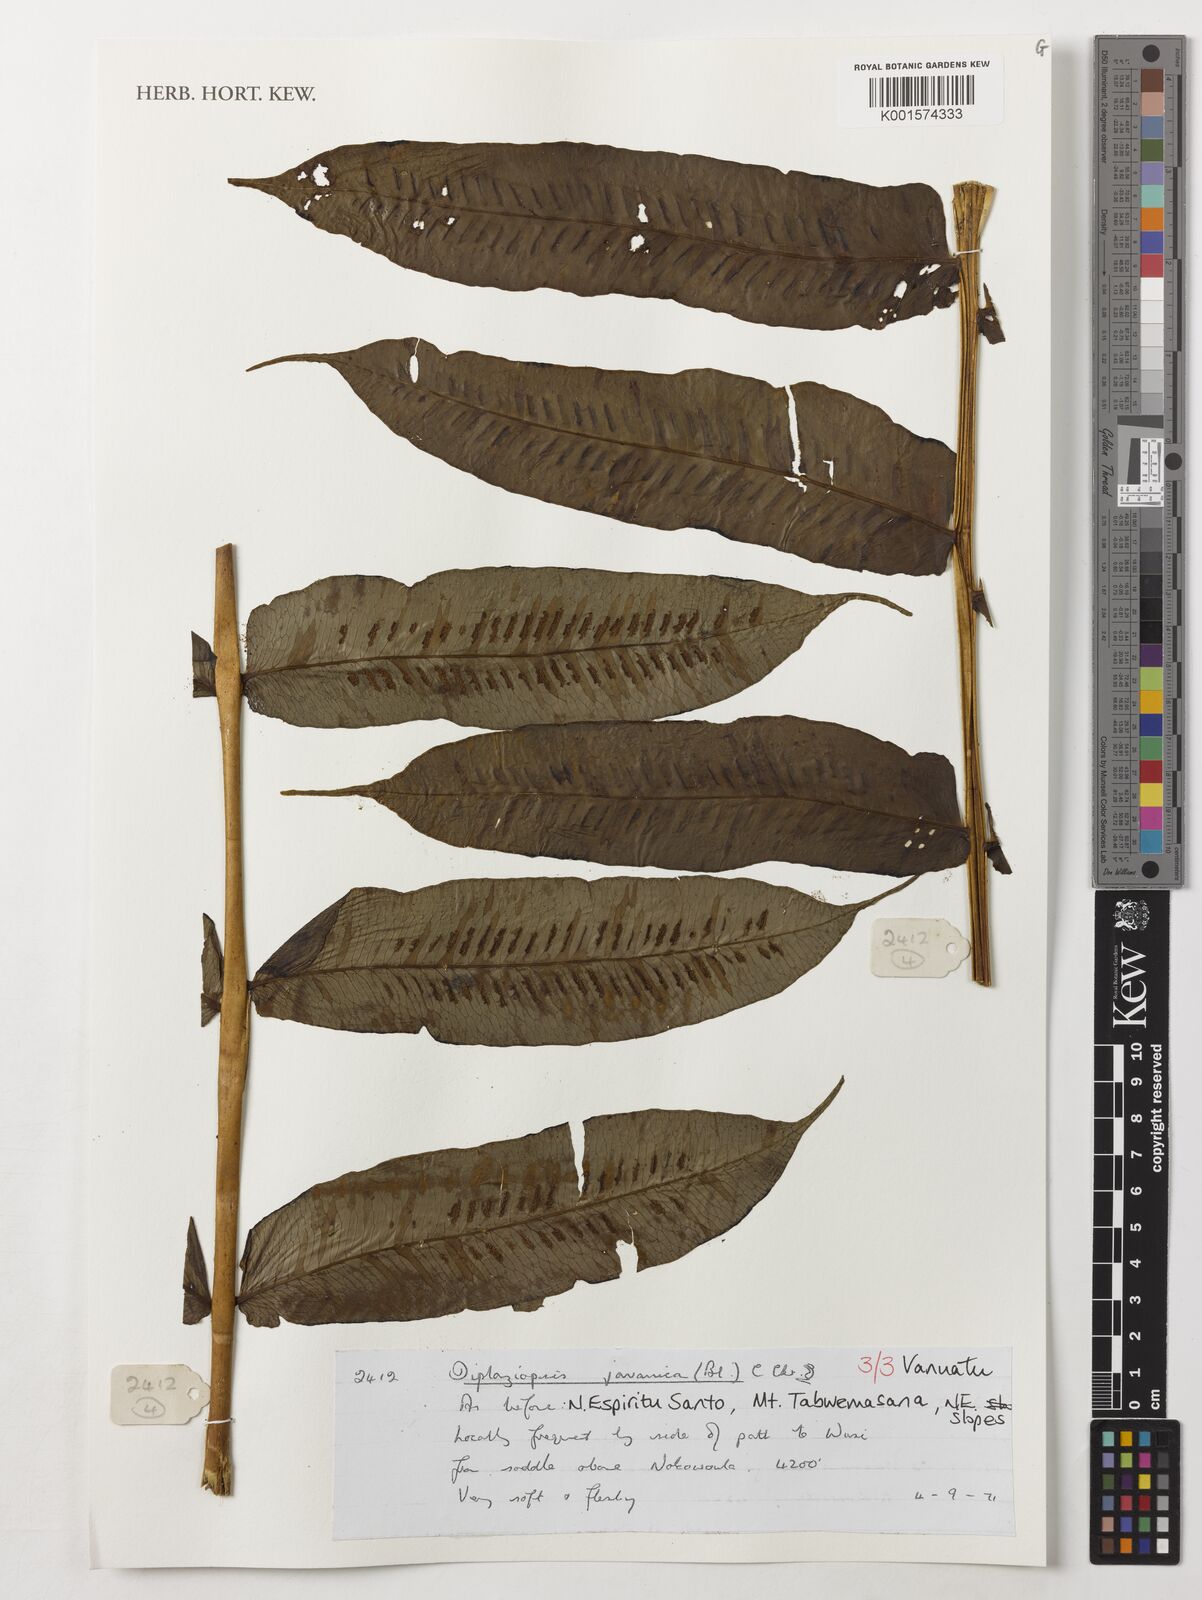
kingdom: Plantae
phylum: Tracheophyta
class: Polypodiopsida
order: Polypodiales
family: Diplaziopsidaceae
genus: Diplaziopsis
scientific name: Diplaziopsis javanica
